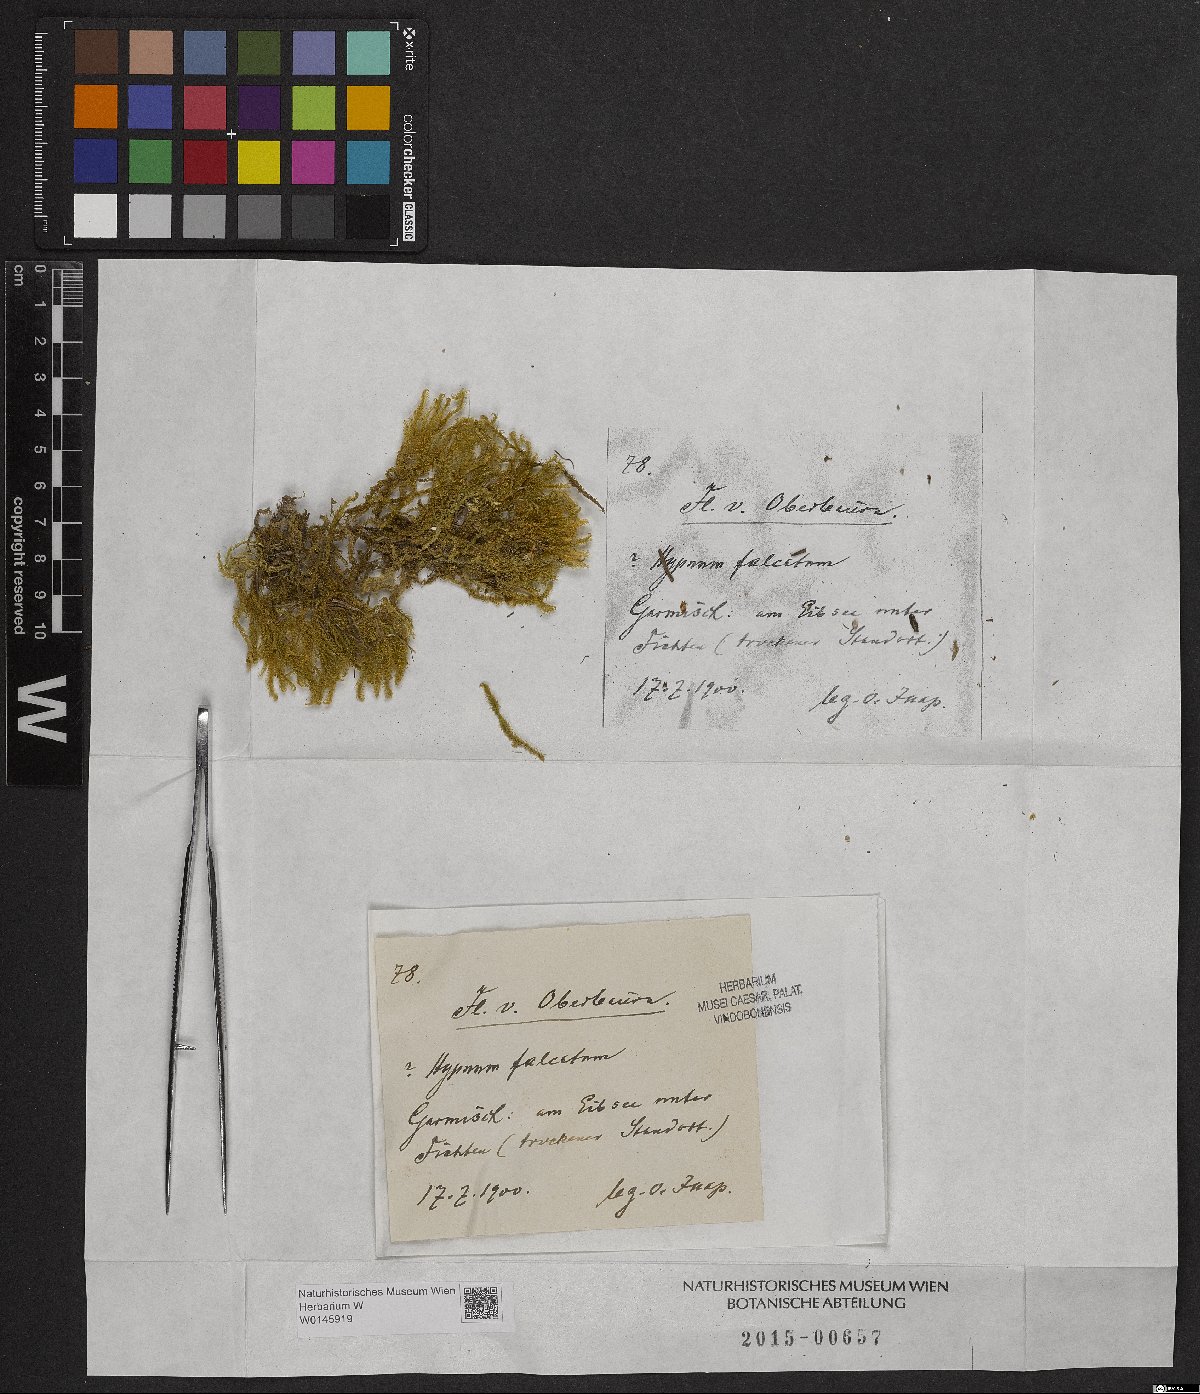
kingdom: Plantae
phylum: Bryophyta
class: Bryopsida
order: Hypnales
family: Amblystegiaceae
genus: Palustriella
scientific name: Palustriella falcata
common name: Curled hook-moss
